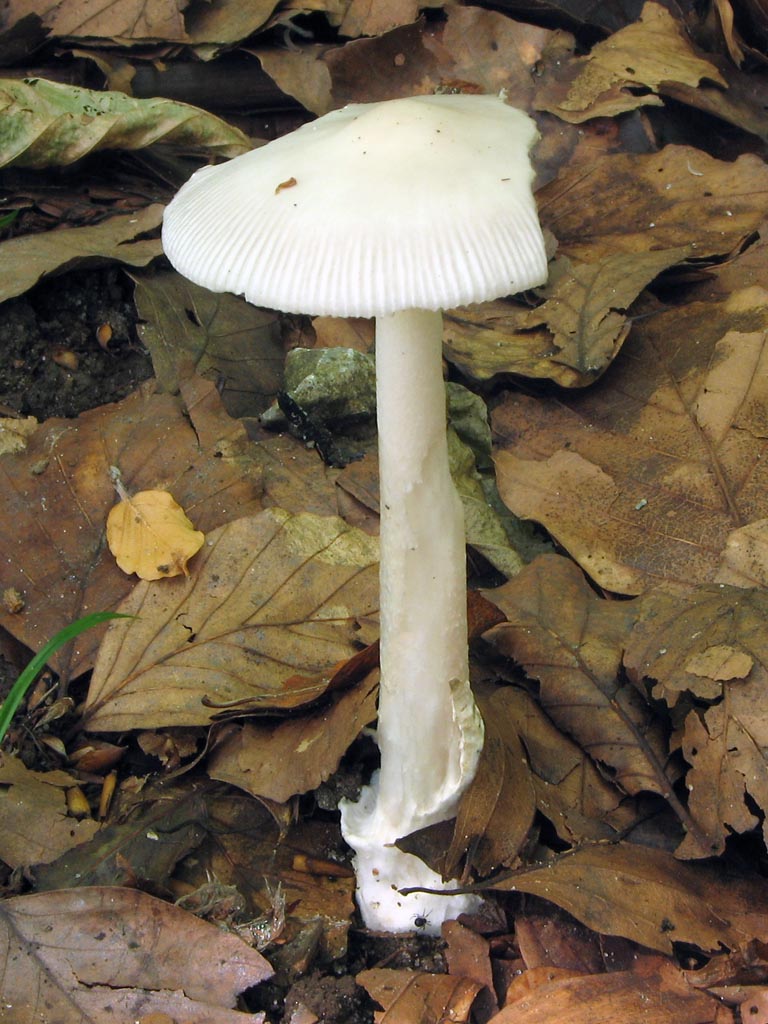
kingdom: Fungi
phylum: Basidiomycota
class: Agaricomycetes
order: Agaricales
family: Amanitaceae
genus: Amanita
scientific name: Amanita vaginata
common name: hvid kam-fluesvamp
